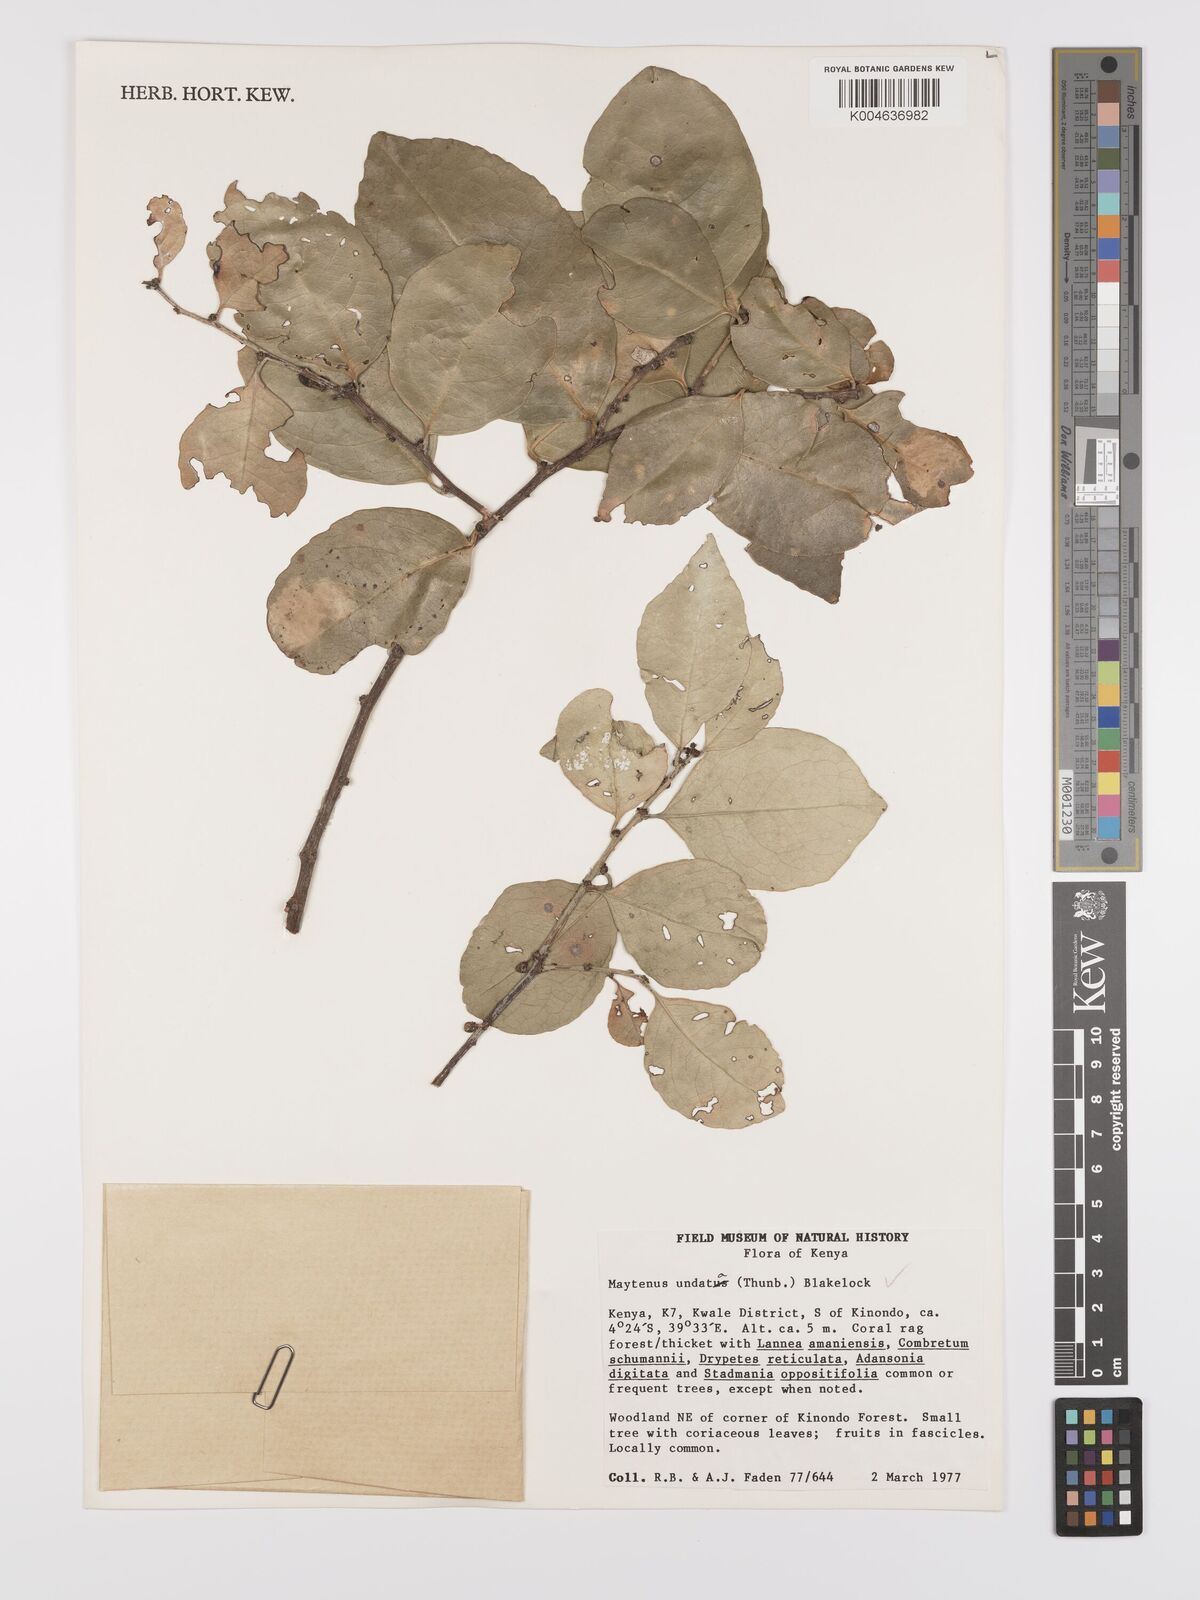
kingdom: Plantae
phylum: Tracheophyta
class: Magnoliopsida
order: Celastrales
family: Celastraceae
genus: Gymnosporia
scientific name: Gymnosporia undata
